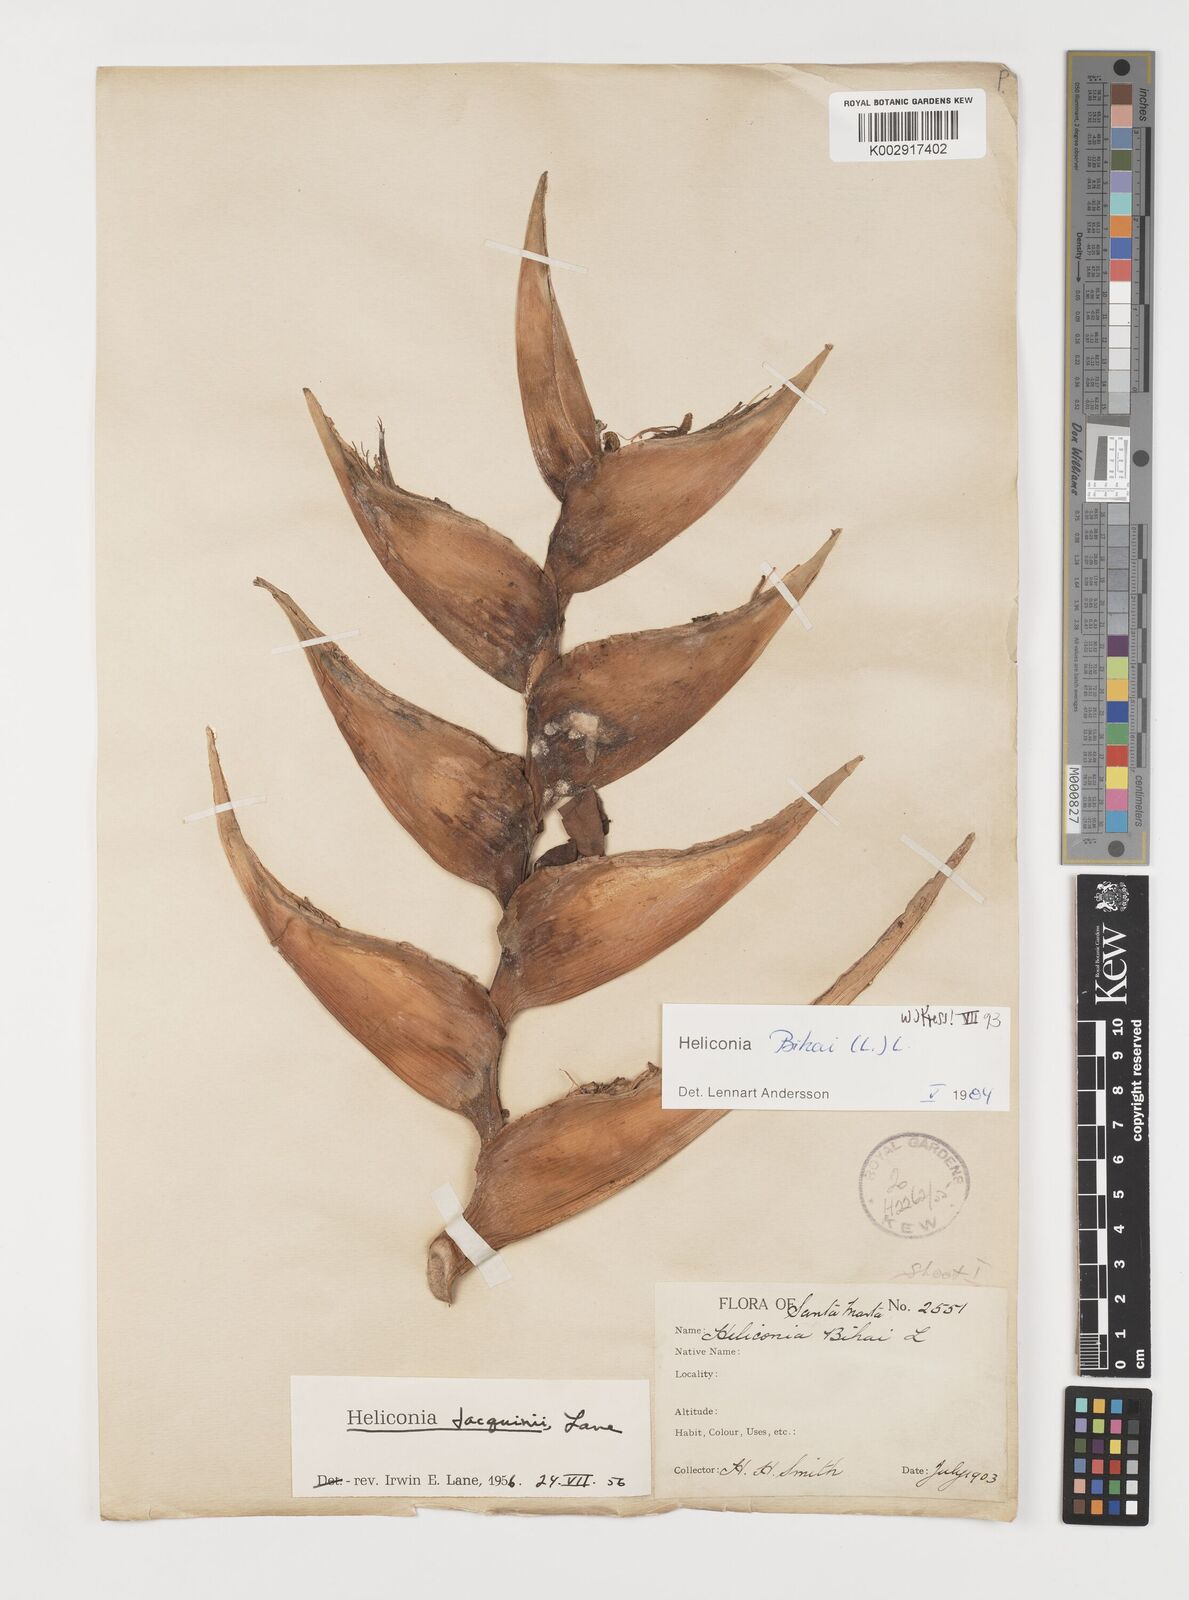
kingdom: Plantae
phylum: Tracheophyta
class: Liliopsida
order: Zingiberales
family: Heliconiaceae
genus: Heliconia
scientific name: Heliconia bihai
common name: Macaw flower
